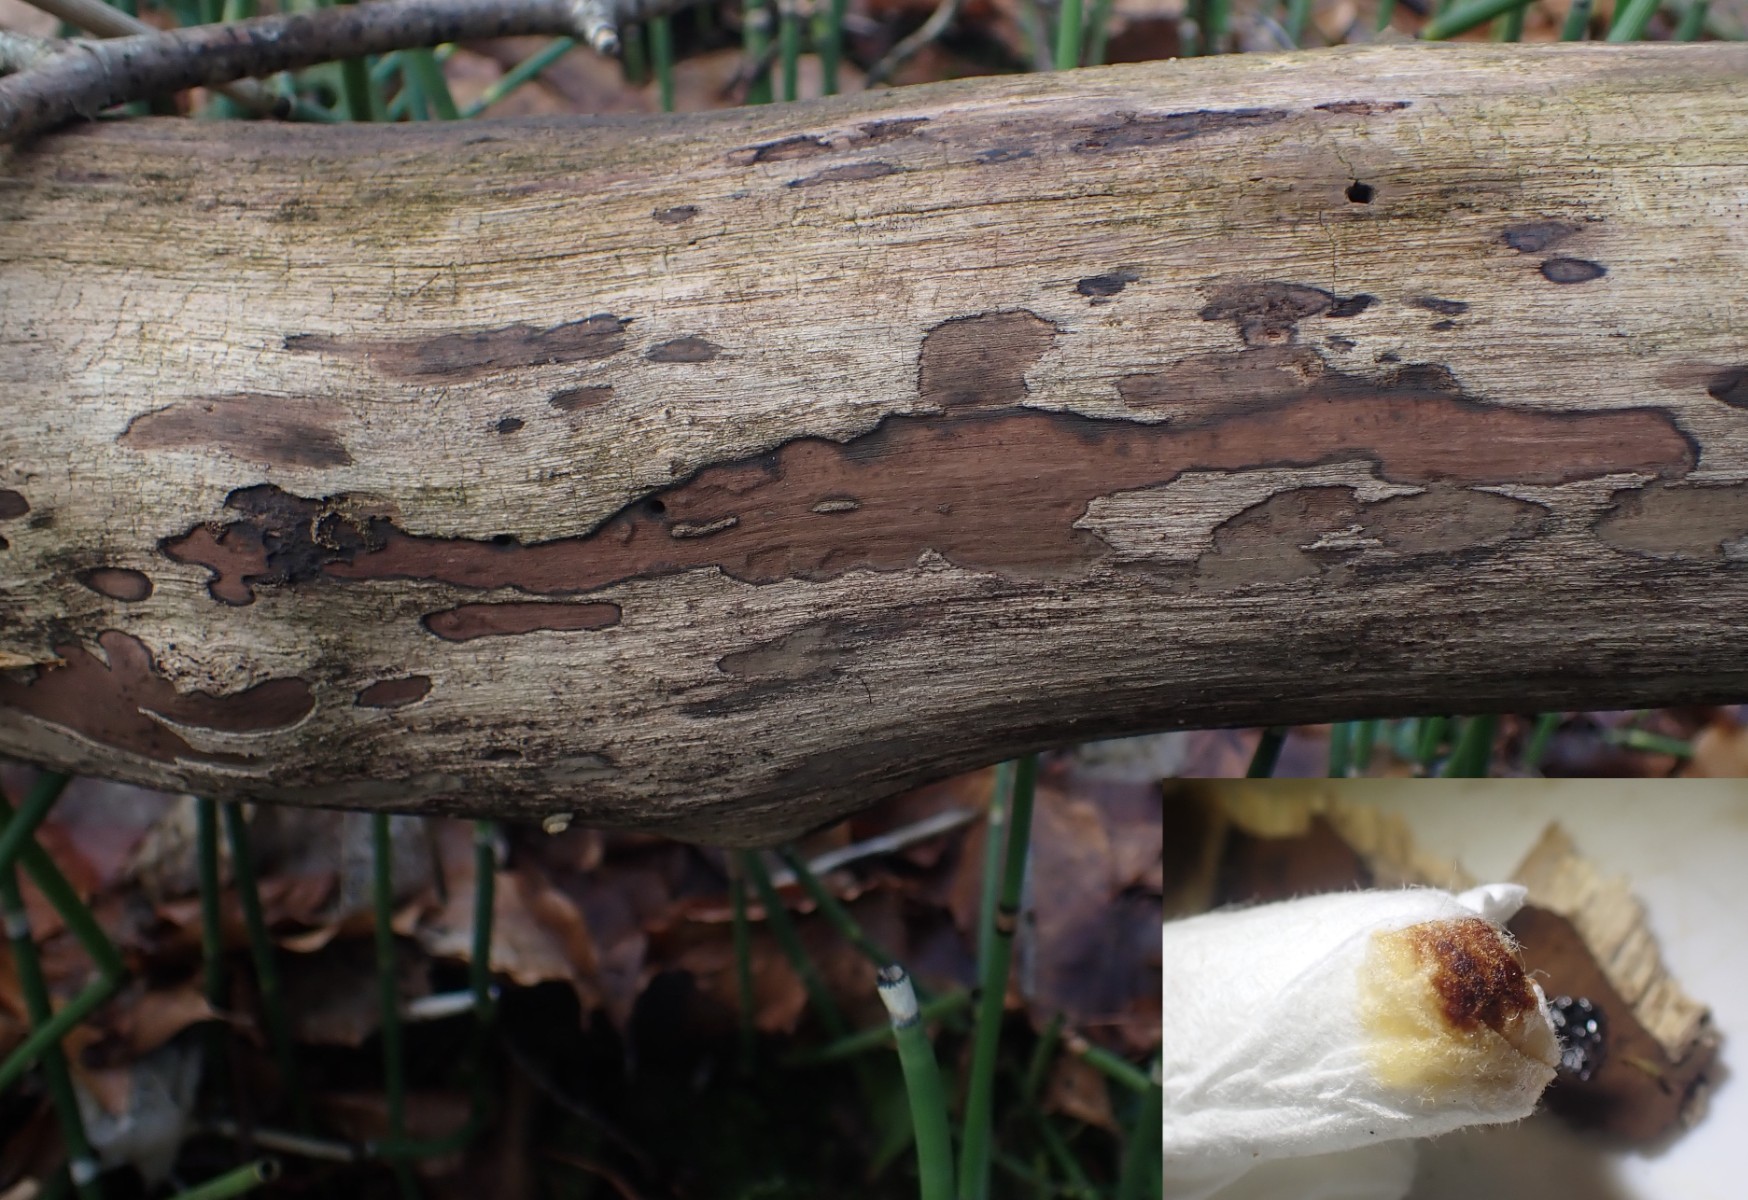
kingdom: Fungi
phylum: Ascomycota
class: Sordariomycetes
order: Xylariales
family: Hypoxylaceae
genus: Hypoxylon
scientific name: Hypoxylon petriniae
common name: nedsænket kulbær
